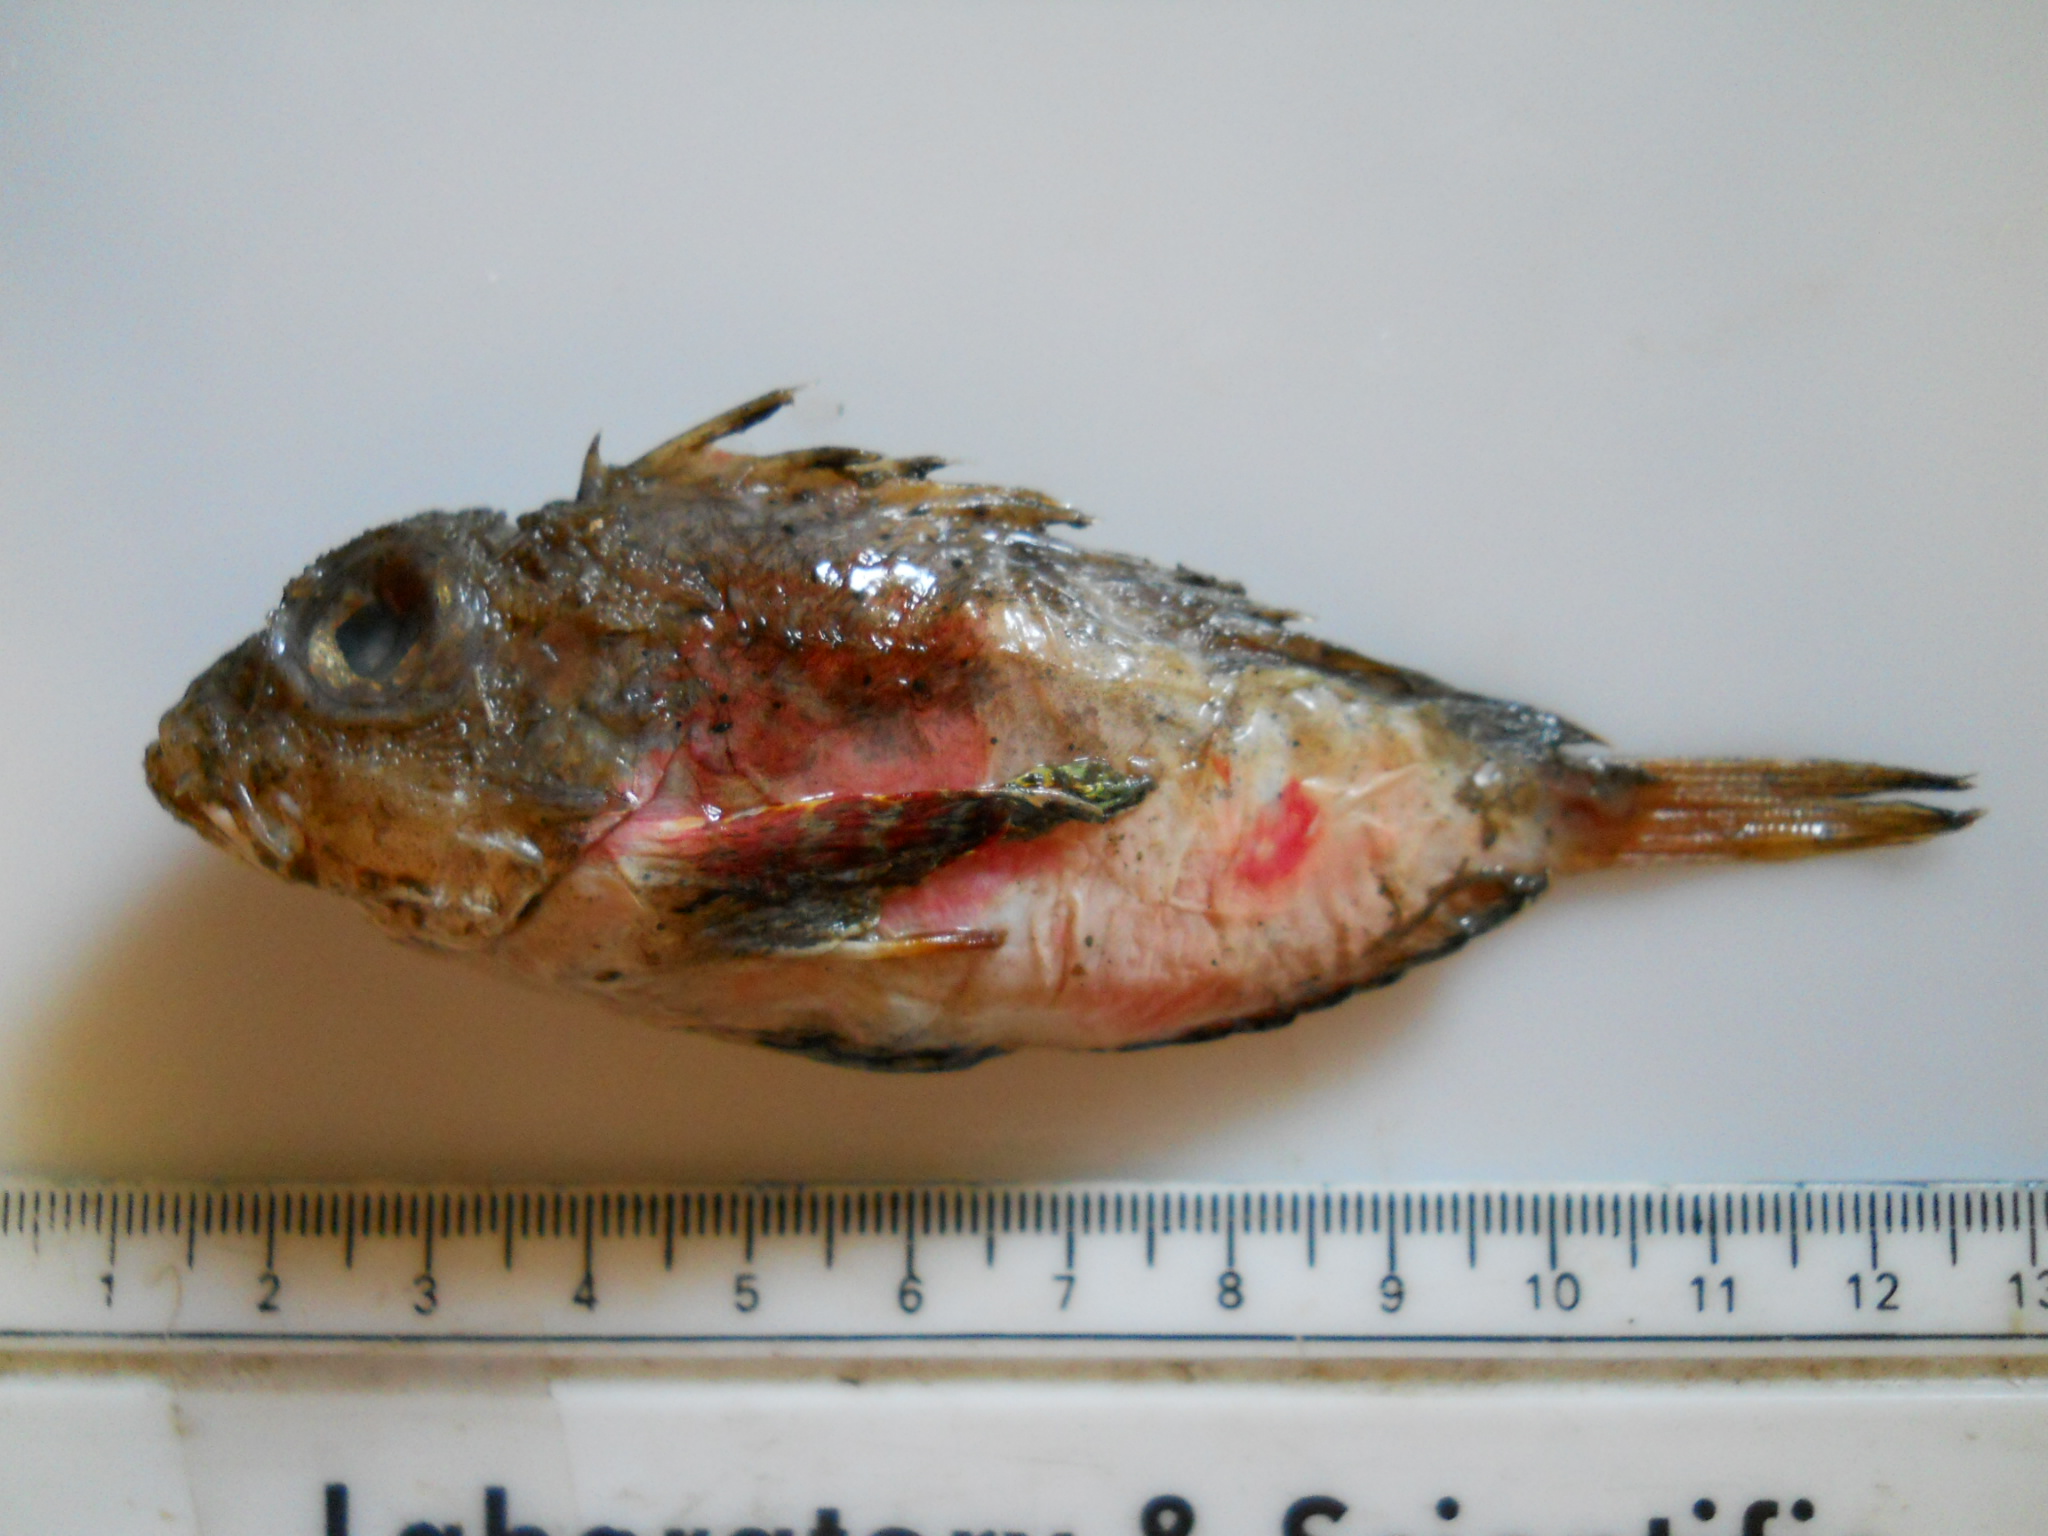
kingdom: Animalia
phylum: Chordata
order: Scorpaeniformes
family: Synanceiidae
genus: Minous
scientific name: Minous coccineus
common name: Onestick stingfish
